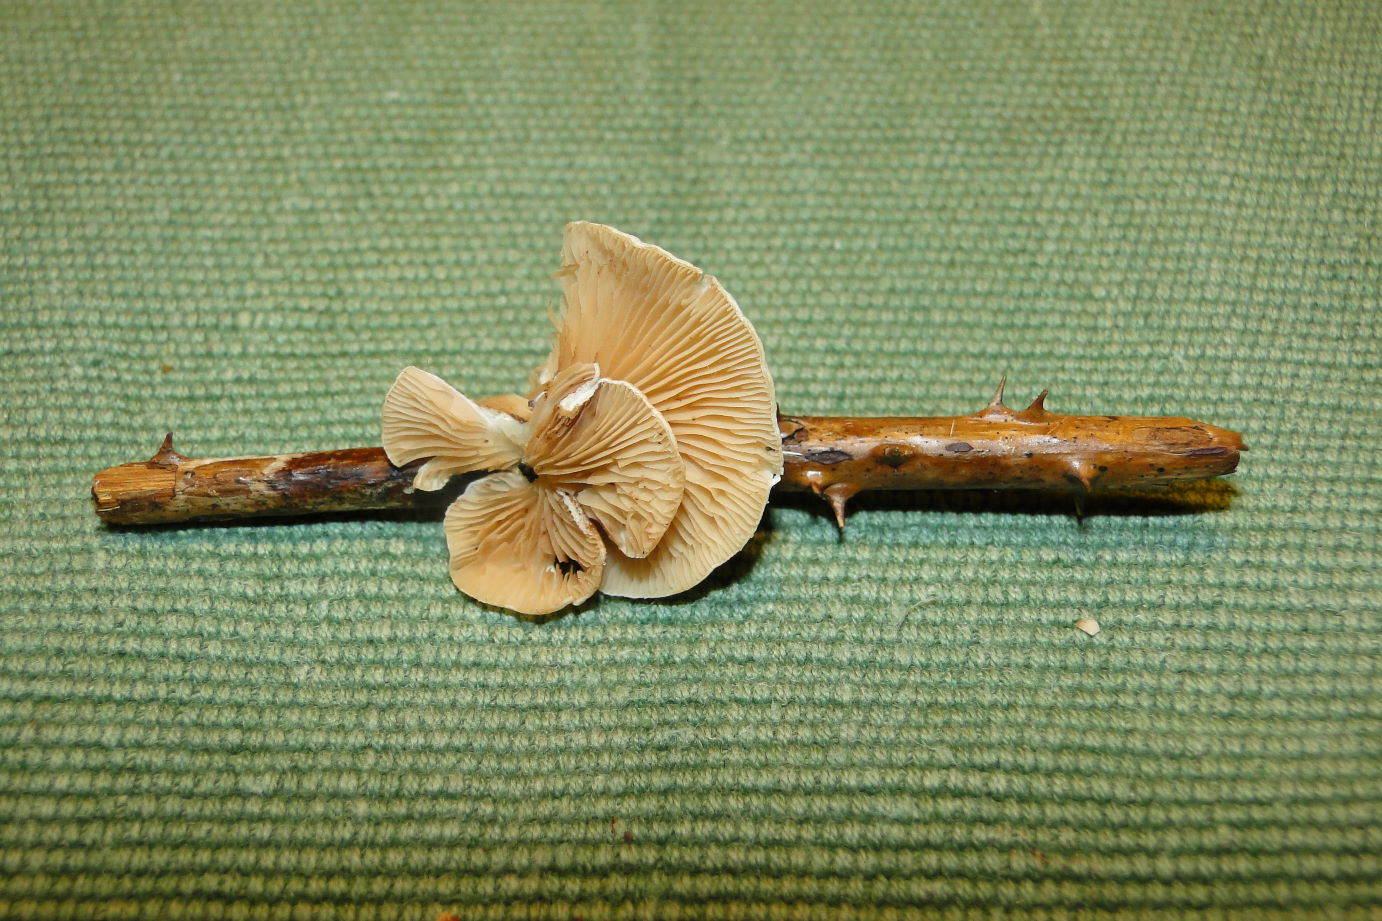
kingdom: Fungi
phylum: Basidiomycota
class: Agaricomycetes
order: Agaricales
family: Crepidotaceae
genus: Crepidotus
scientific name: Crepidotus luteolus
